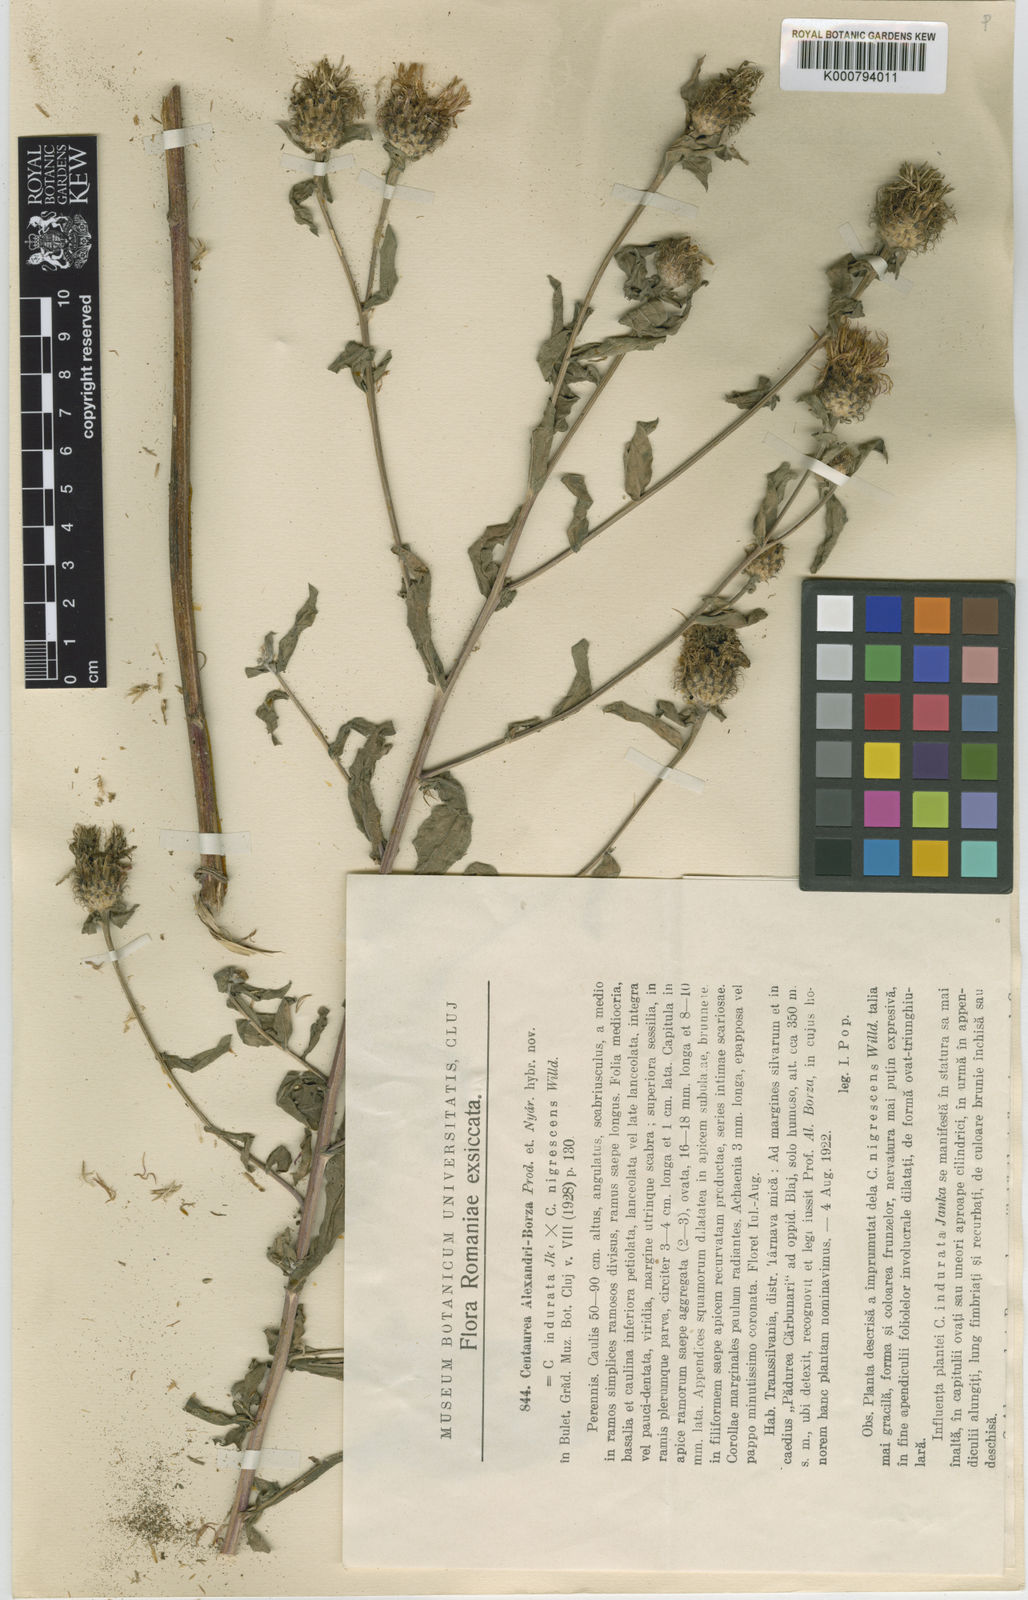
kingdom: Plantae
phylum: Tracheophyta
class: Magnoliopsida
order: Asterales
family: Asteraceae
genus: Centaurea
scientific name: Centaurea nigrescens
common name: Tyrol knapweed
